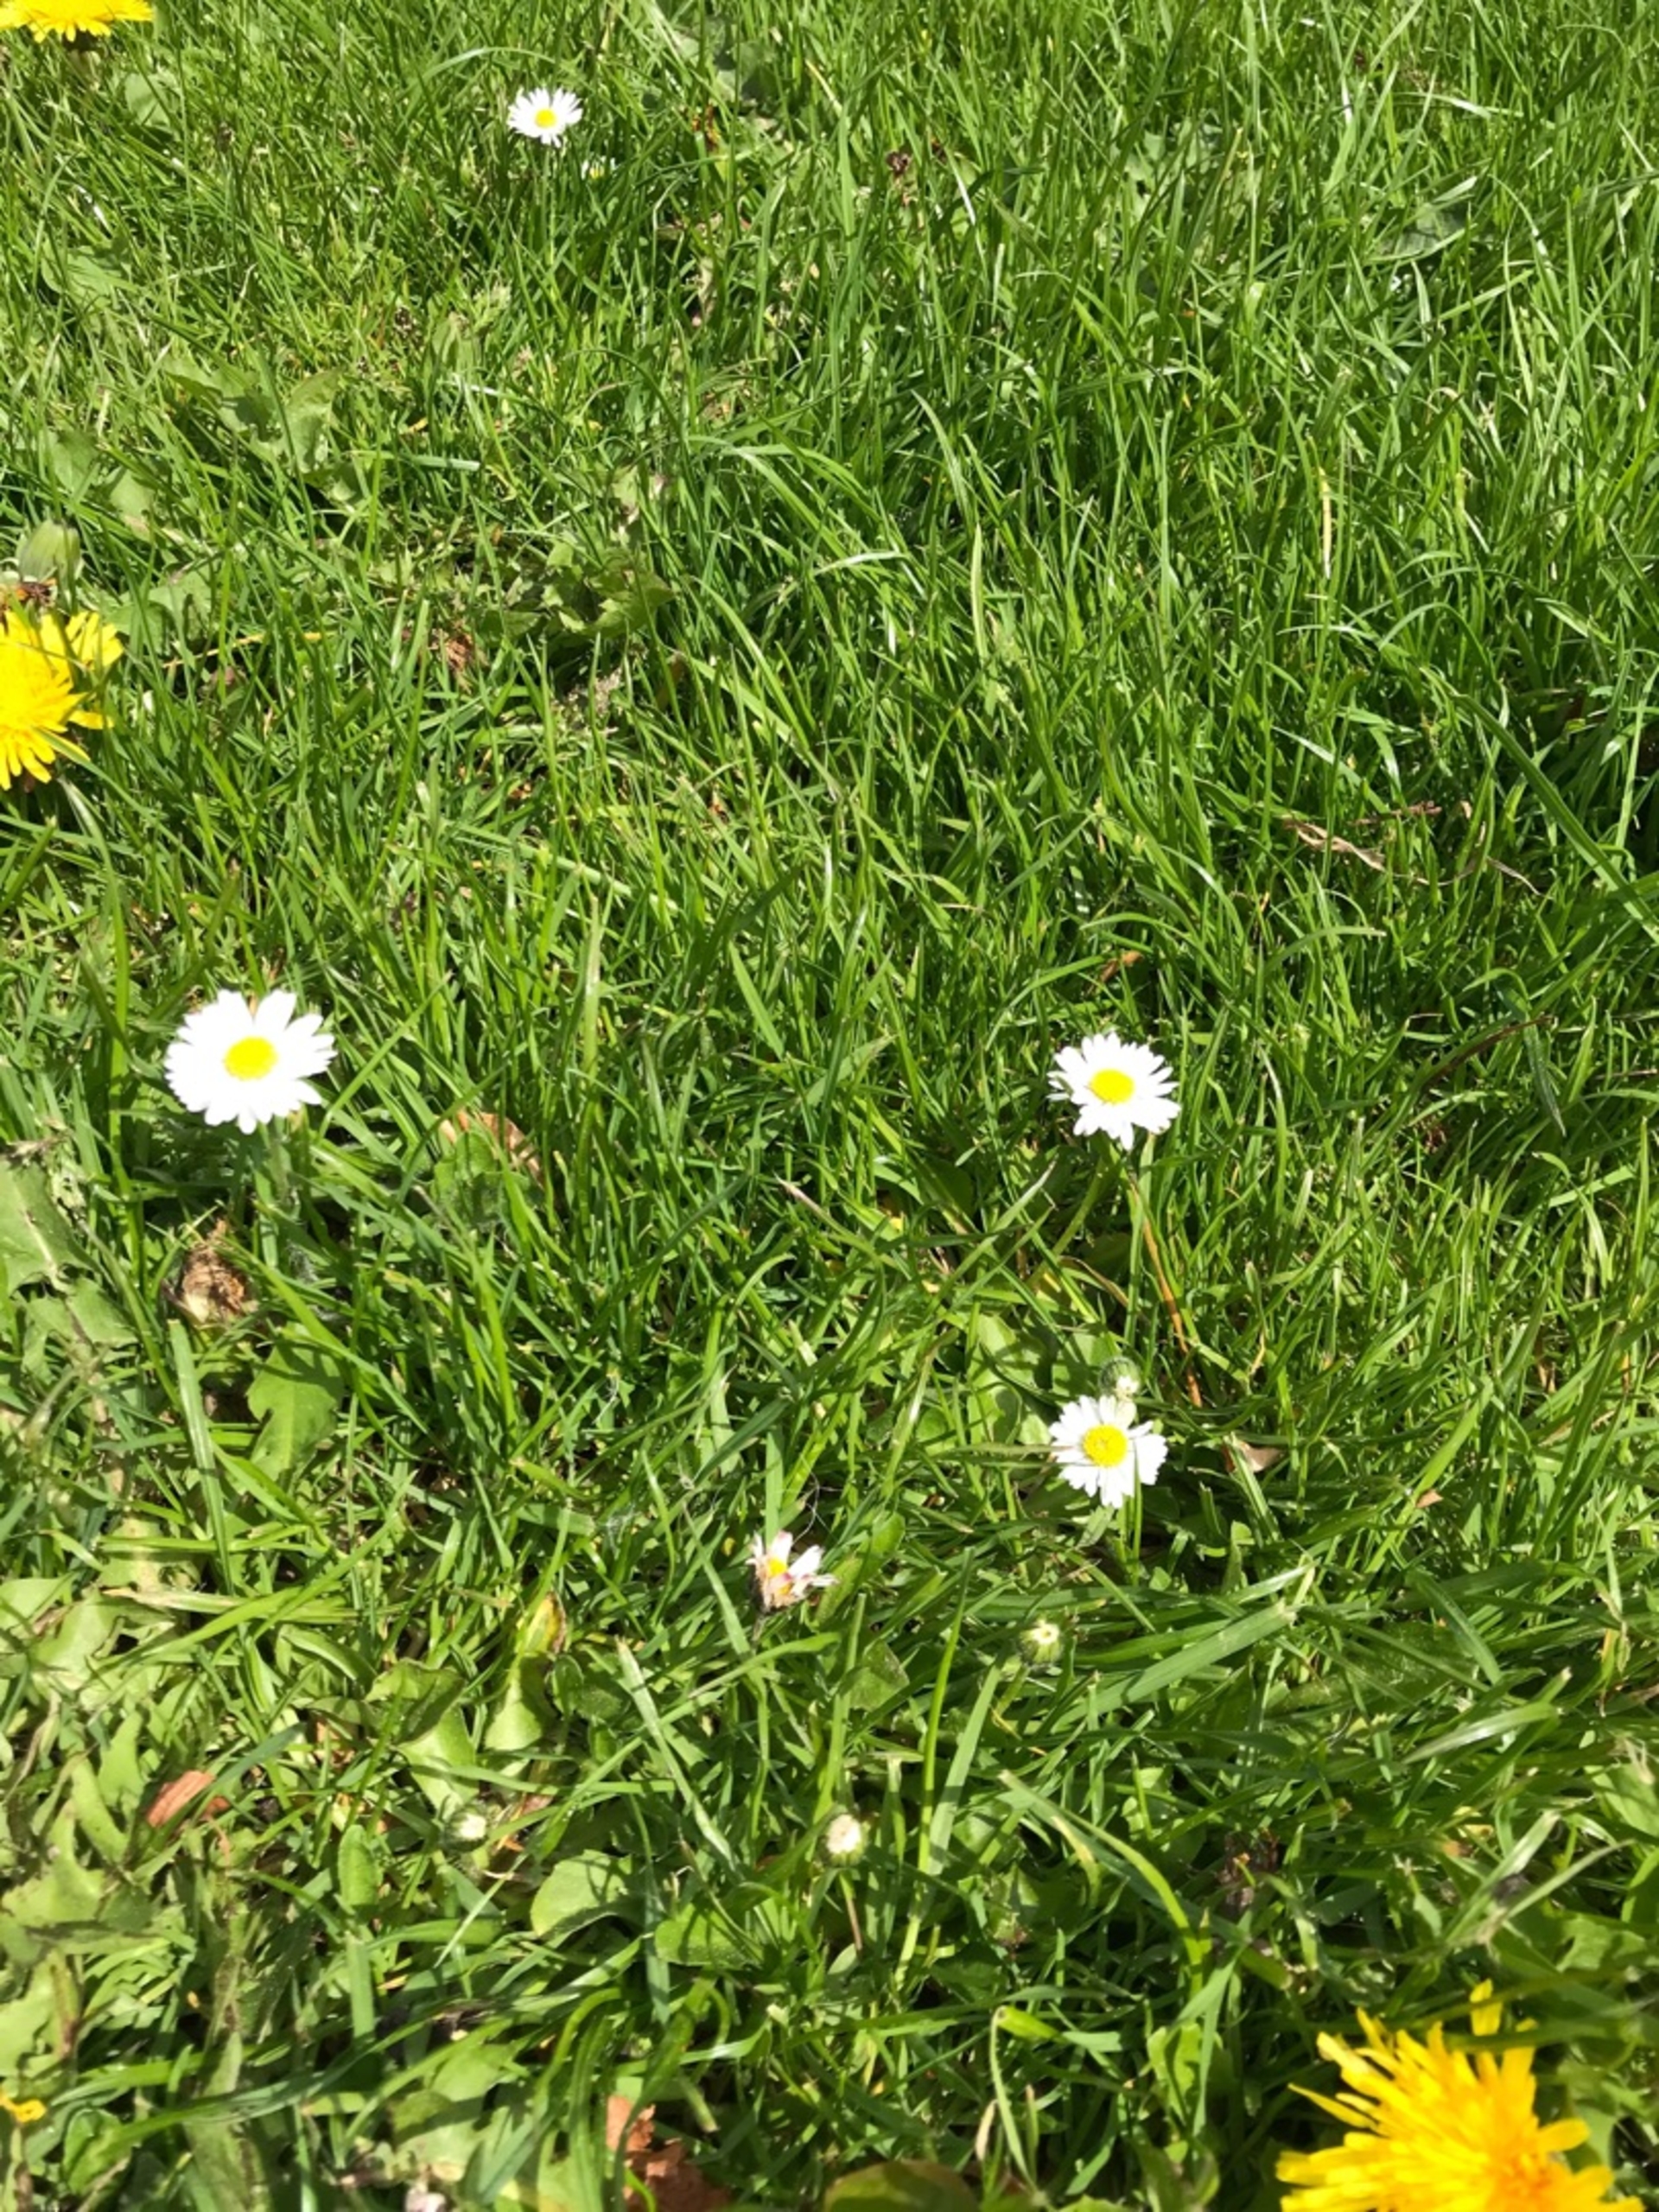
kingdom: Plantae
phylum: Tracheophyta
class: Magnoliopsida
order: Asterales
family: Asteraceae
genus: Bellis
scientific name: Bellis perennis
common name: Tusindfryd
